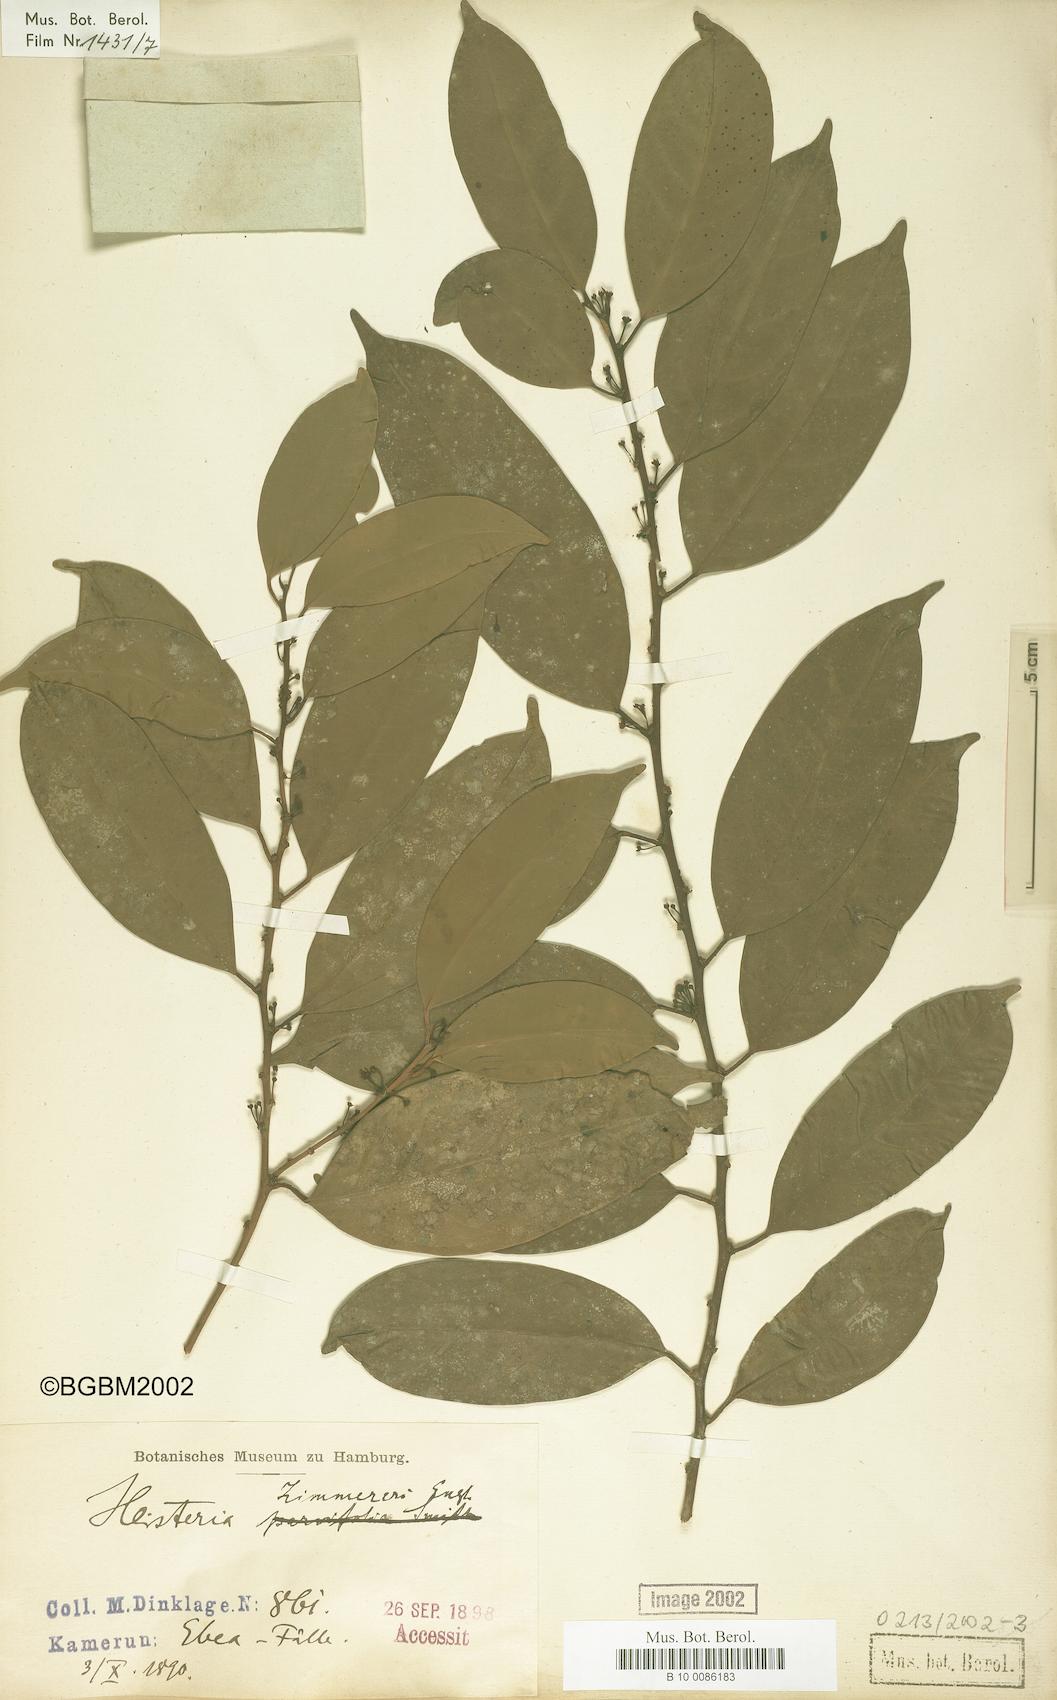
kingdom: Plantae
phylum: Tracheophyta
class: Magnoliopsida
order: Santalales
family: Erythropalaceae
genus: Heisteria
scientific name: Heisteria zimmereri
